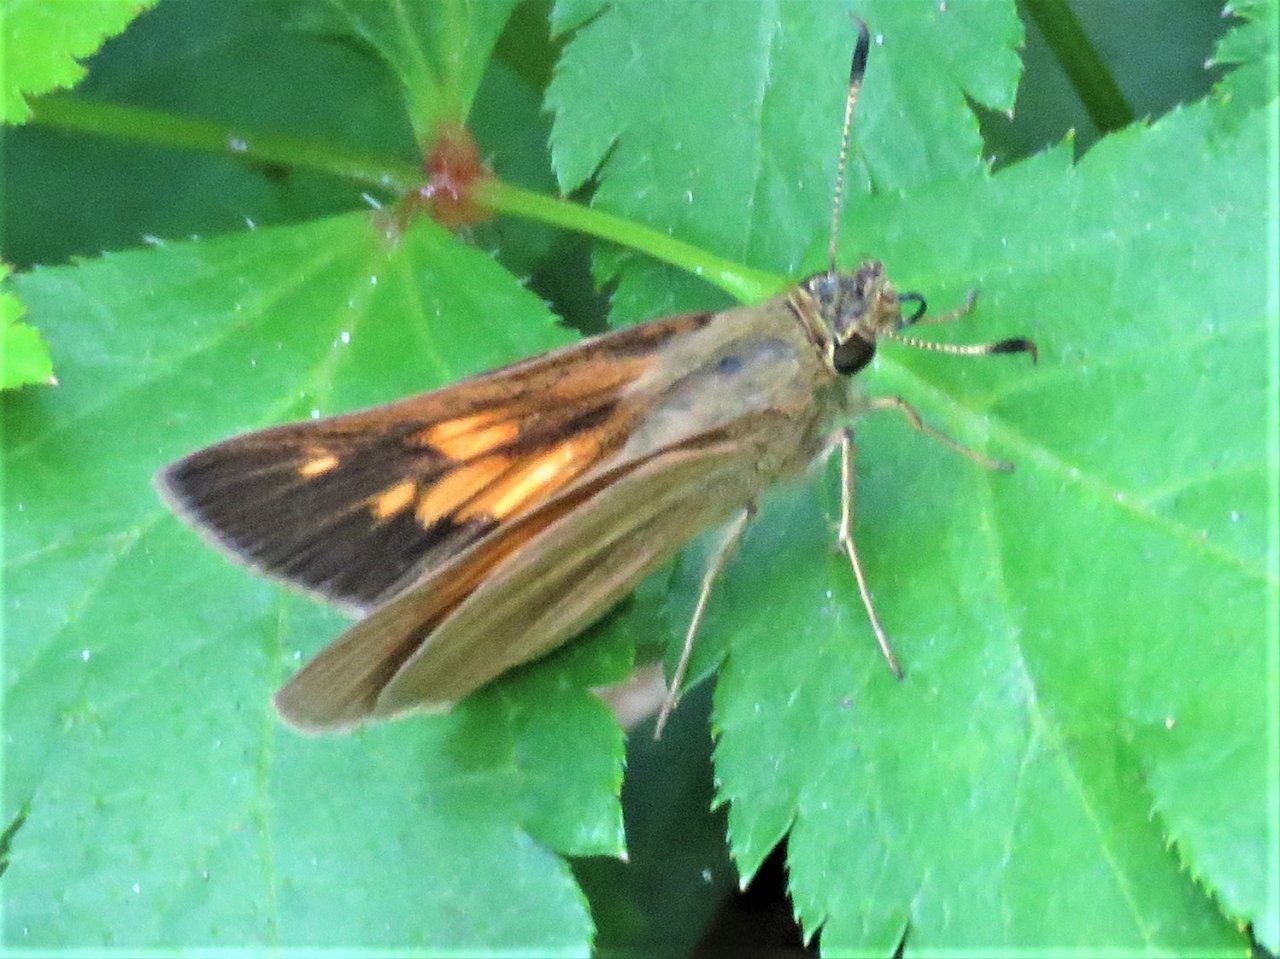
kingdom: Animalia
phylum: Arthropoda
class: Insecta
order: Lepidoptera
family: Hesperiidae
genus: Poanes
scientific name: Poanes viator
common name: Broad-winged Skipper
